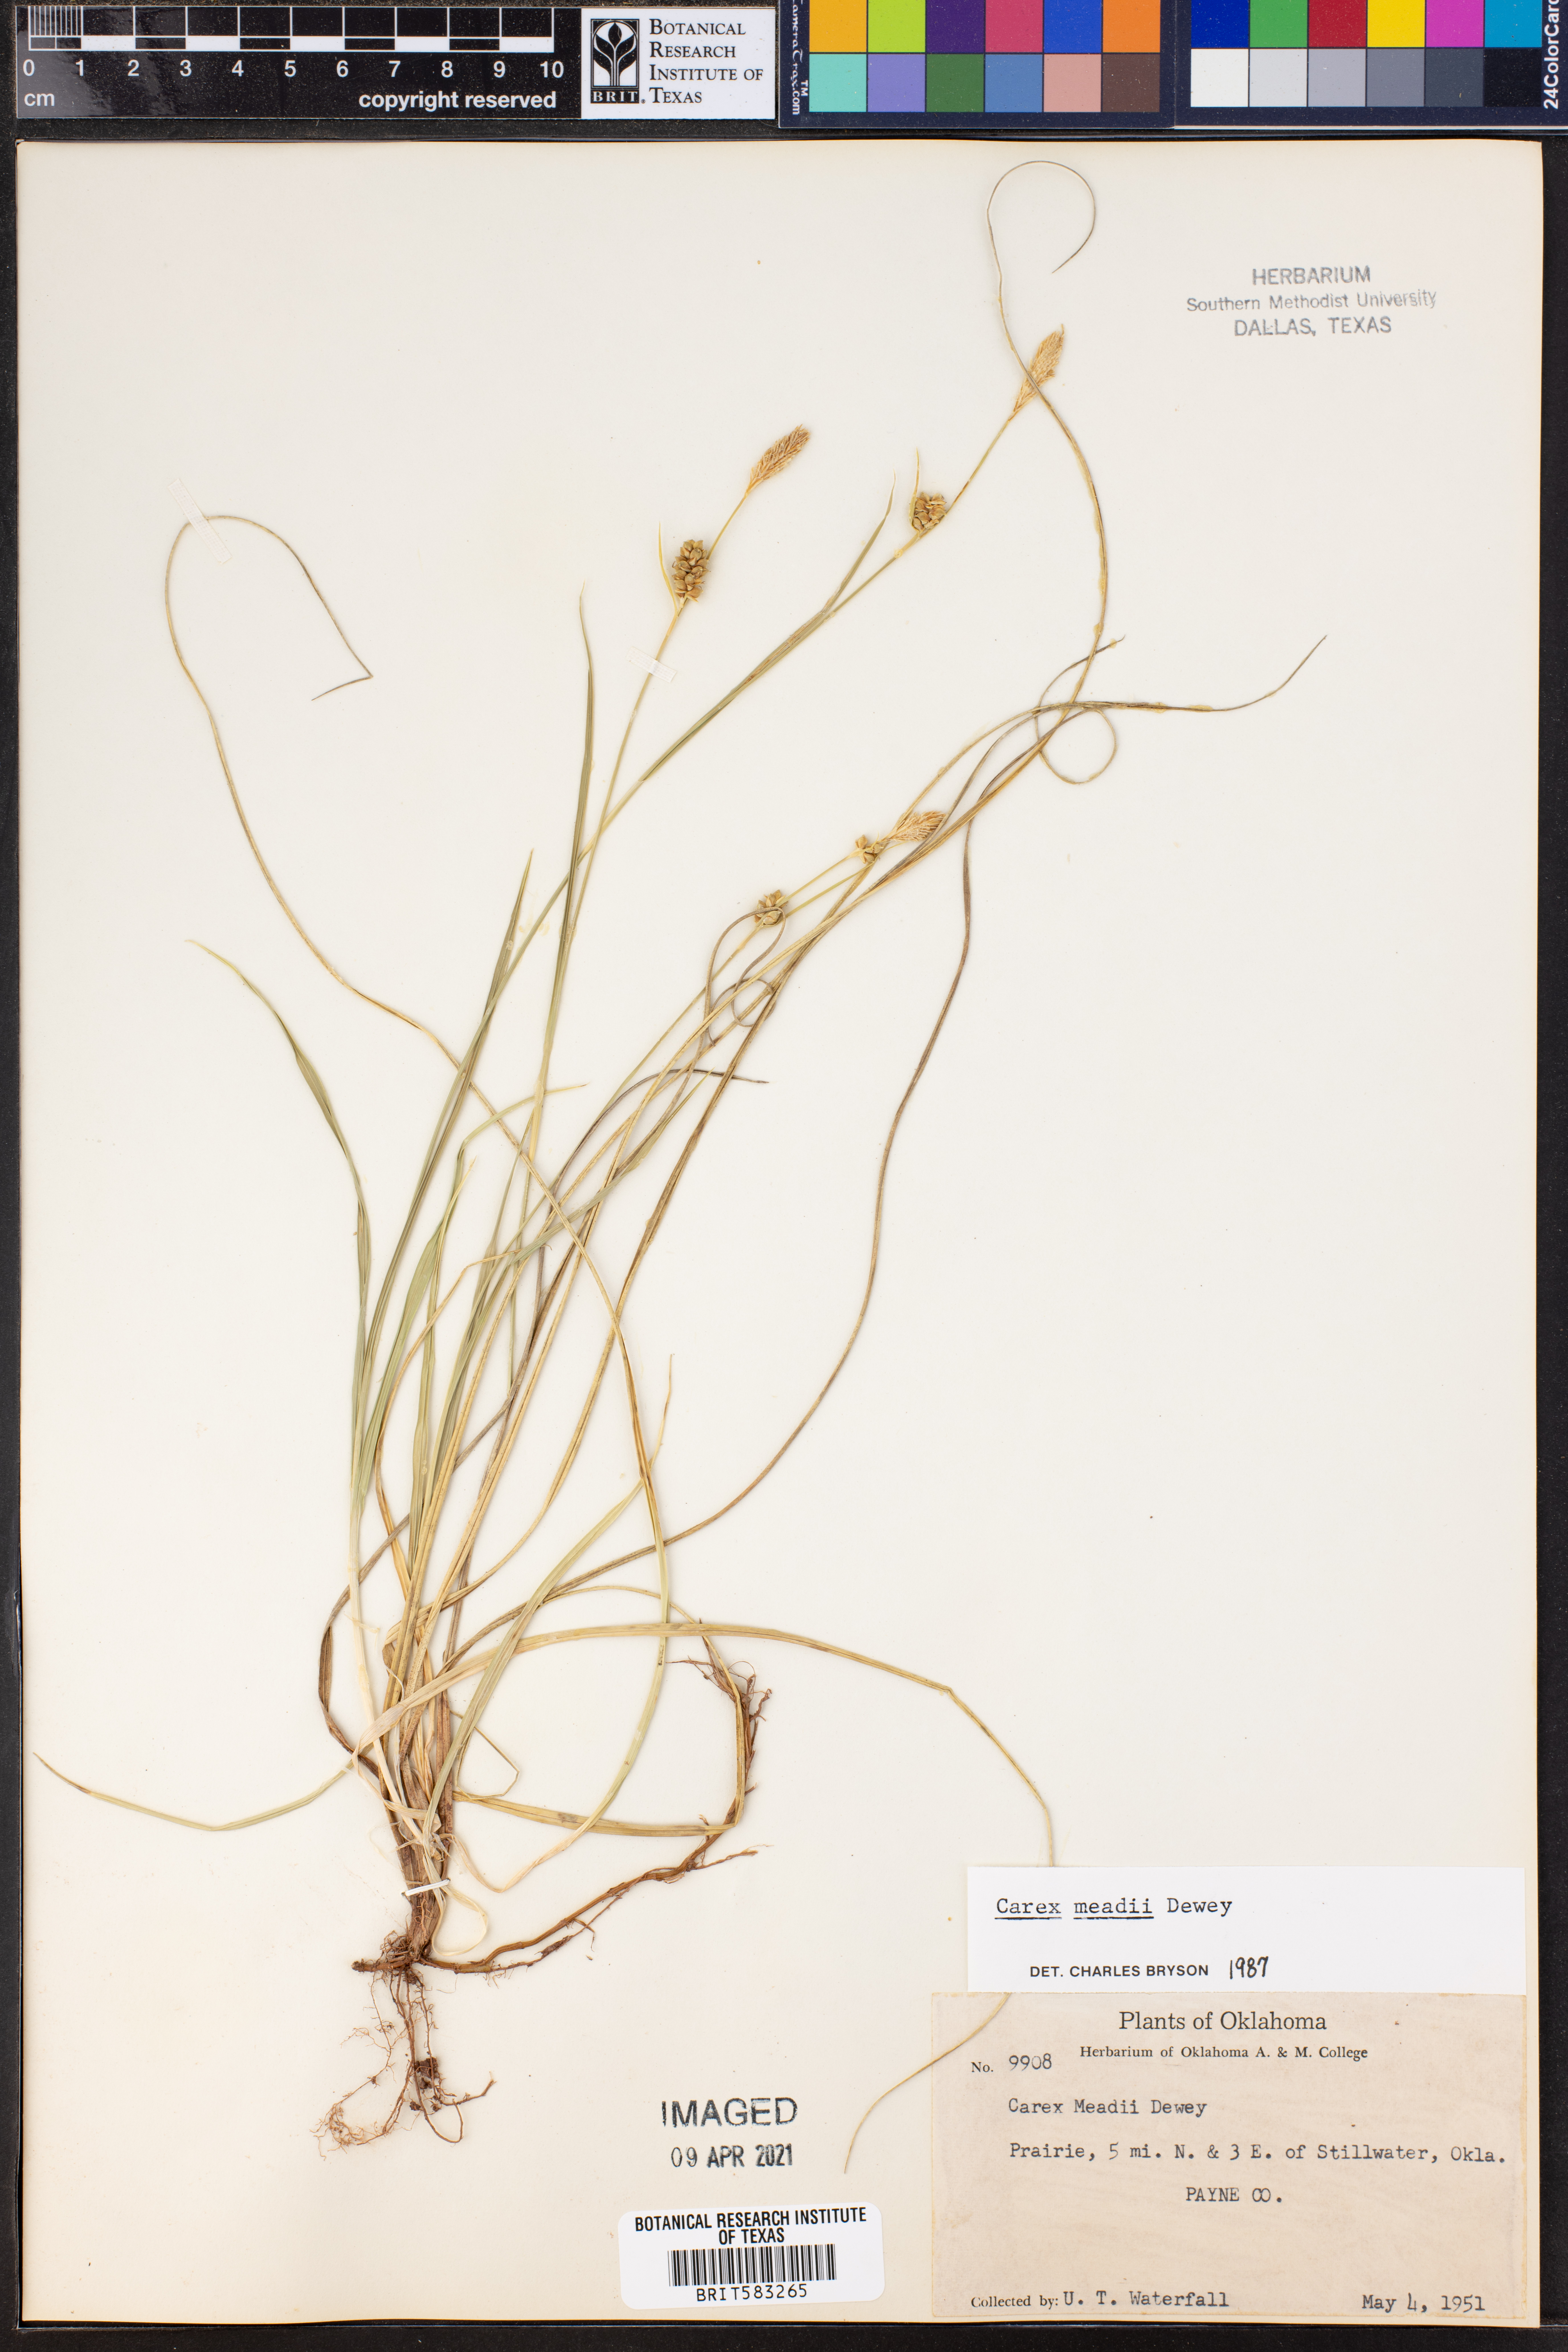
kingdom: Plantae
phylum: Tracheophyta
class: Liliopsida
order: Poales
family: Cyperaceae
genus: Carex
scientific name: Carex meadii
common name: Mead's sedge
